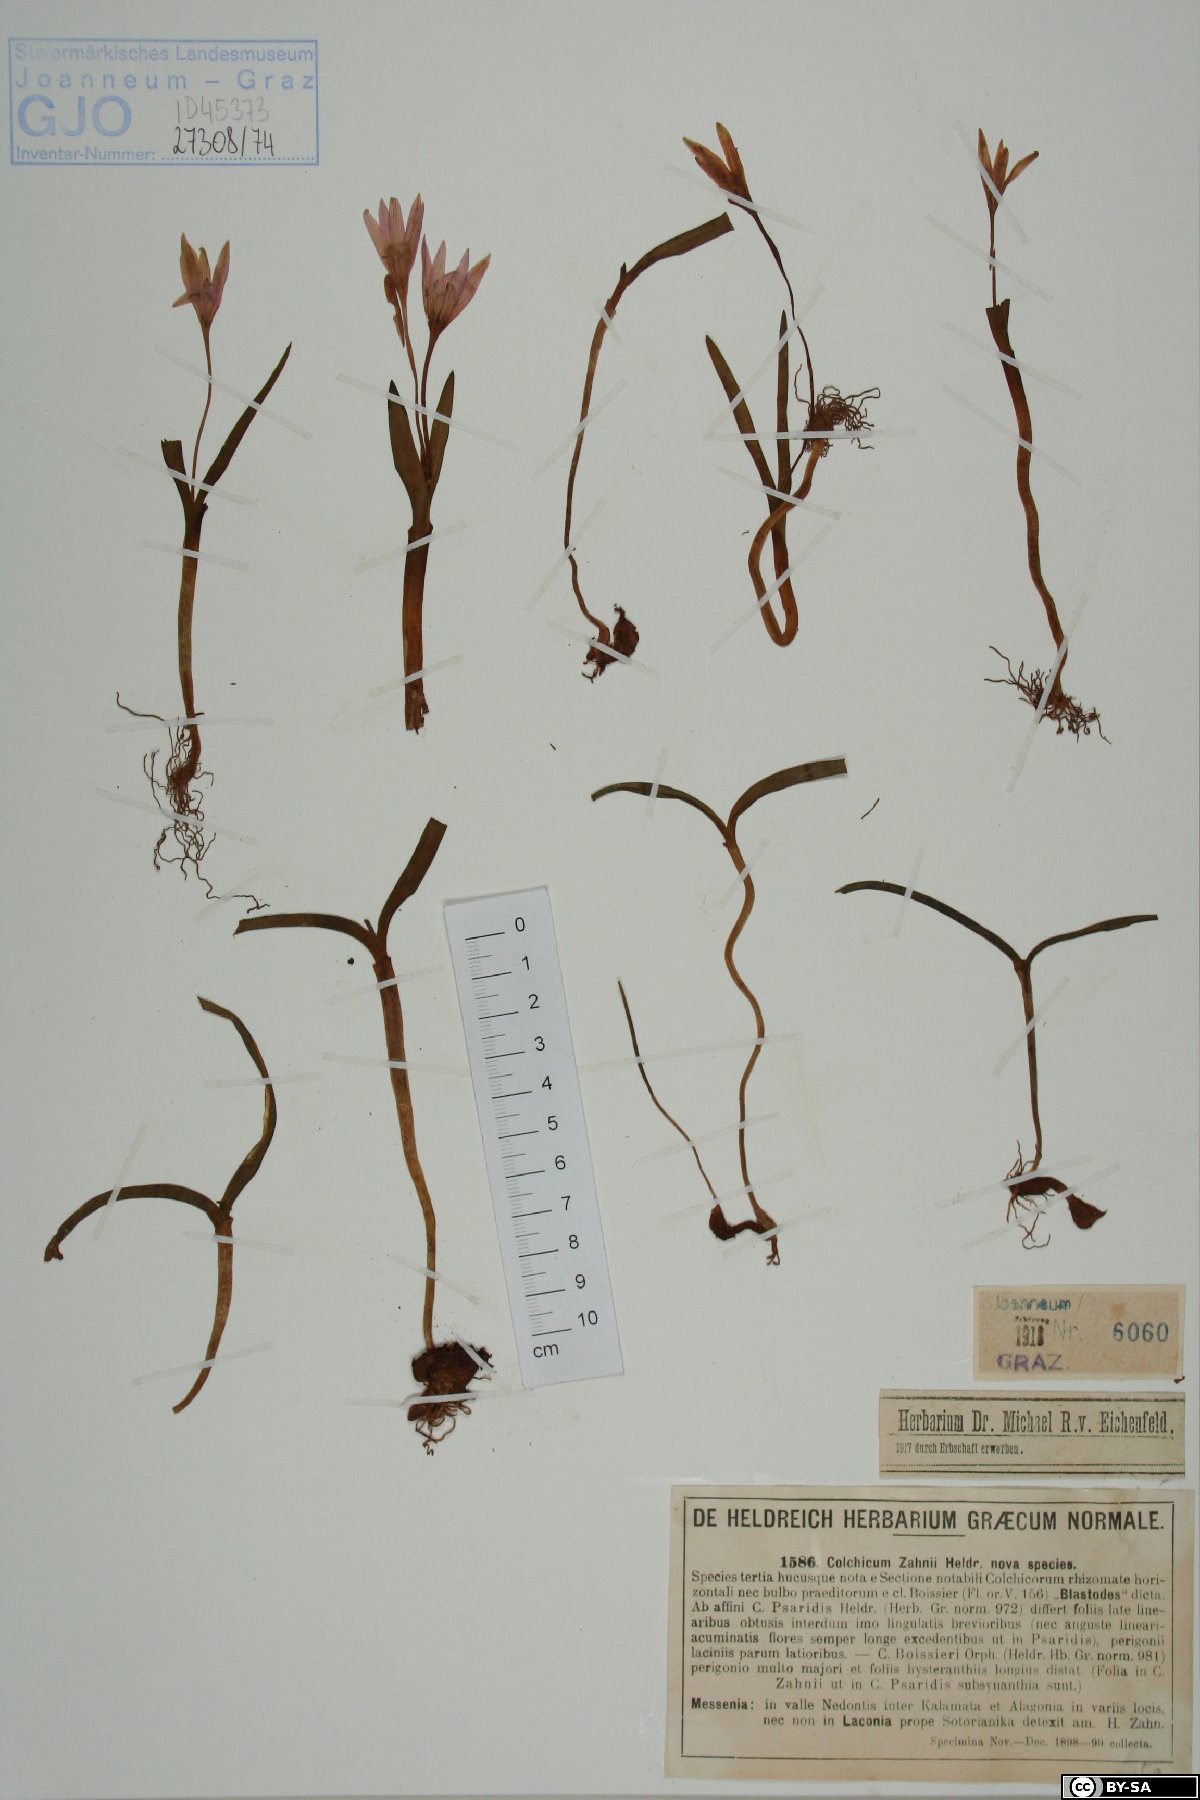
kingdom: Plantae
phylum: Tracheophyta
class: Liliopsida
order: Liliales
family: Colchicaceae
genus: Colchicum
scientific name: Colchicum zahnii
